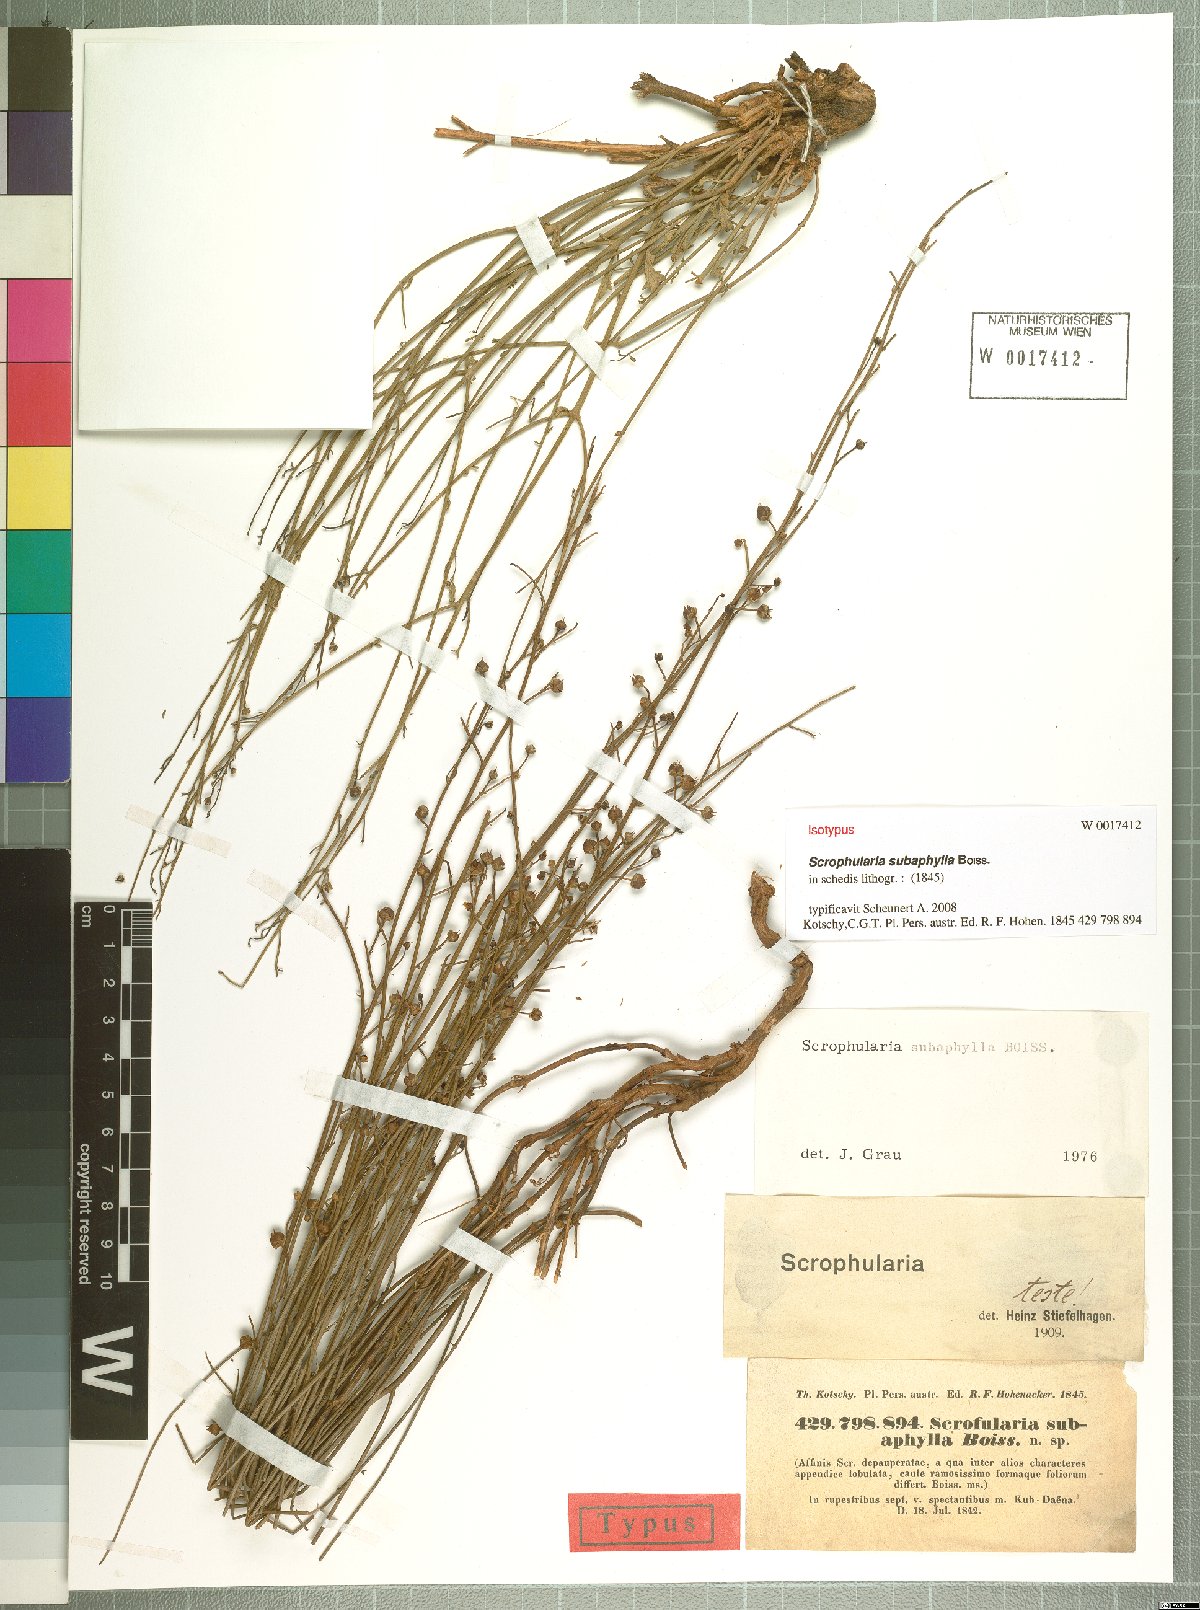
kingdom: Plantae
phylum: Tracheophyta
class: Magnoliopsida
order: Lamiales
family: Scrophulariaceae
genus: Scrophularia
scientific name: Scrophularia subaphylla
